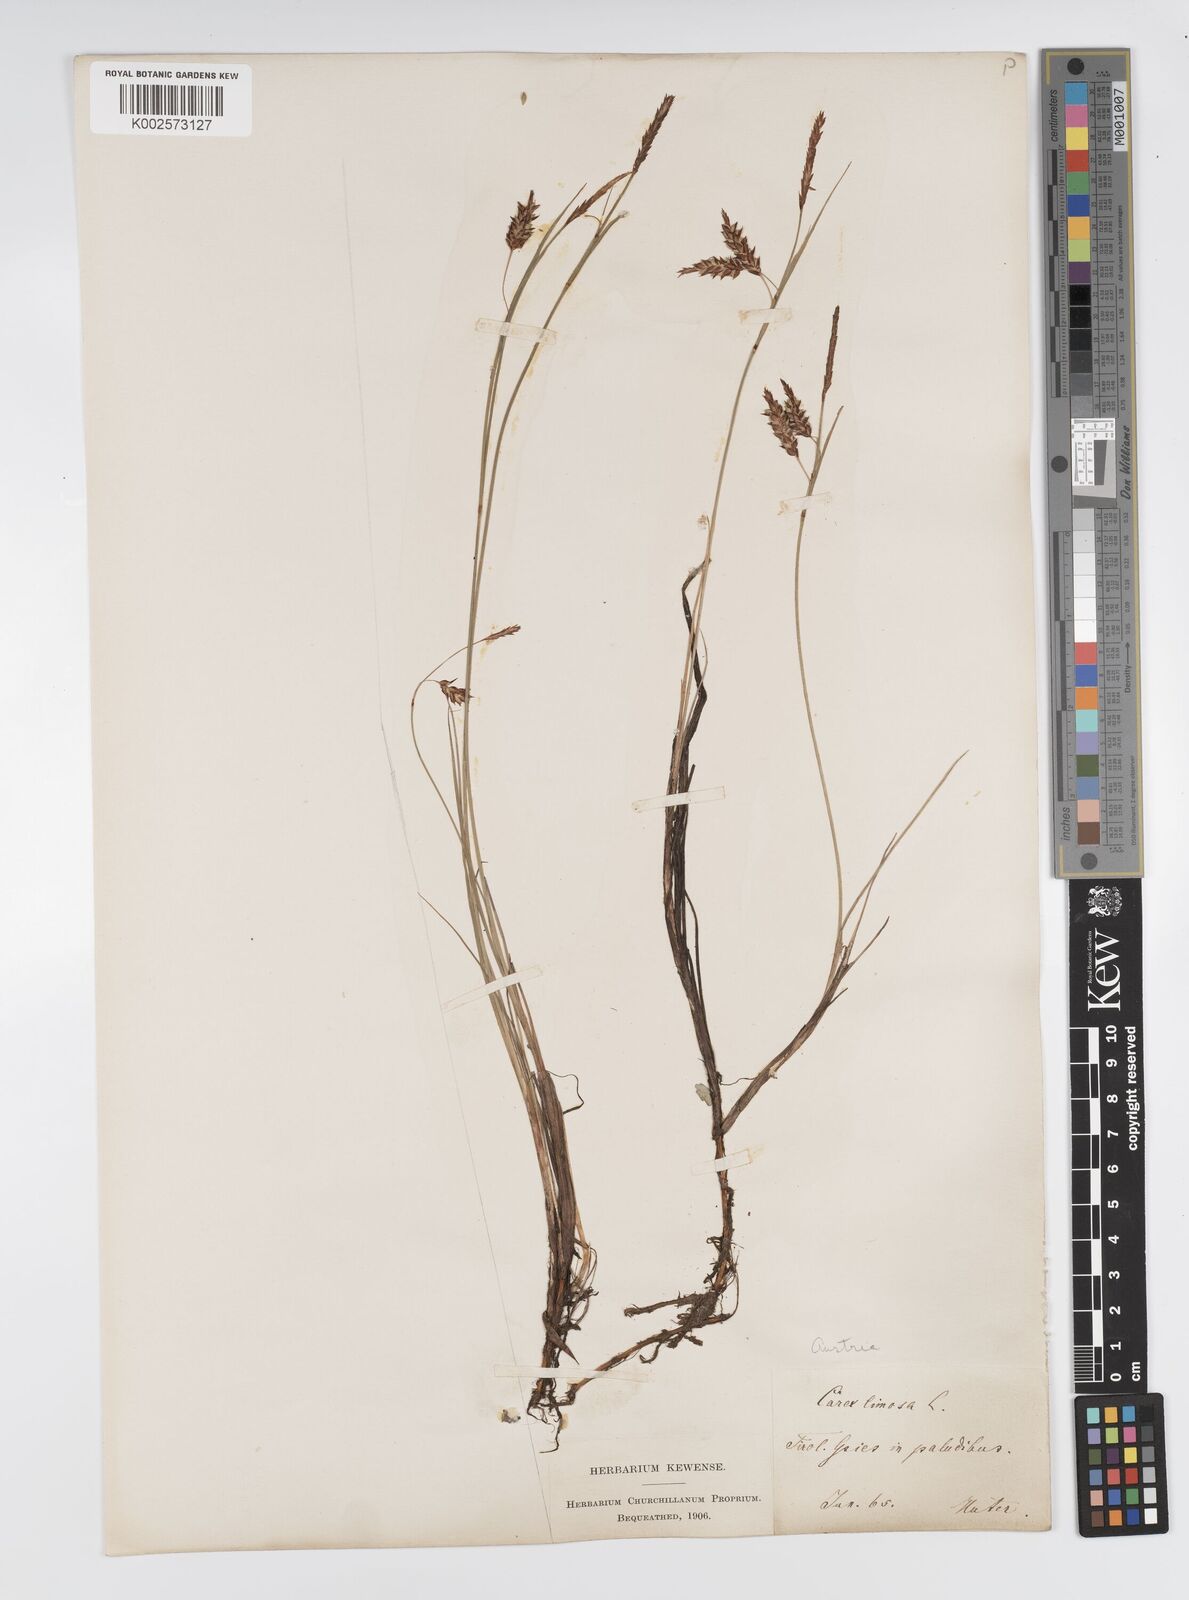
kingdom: Plantae
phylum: Tracheophyta
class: Liliopsida
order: Poales
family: Cyperaceae
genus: Carex
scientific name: Carex limosa
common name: Bog sedge
